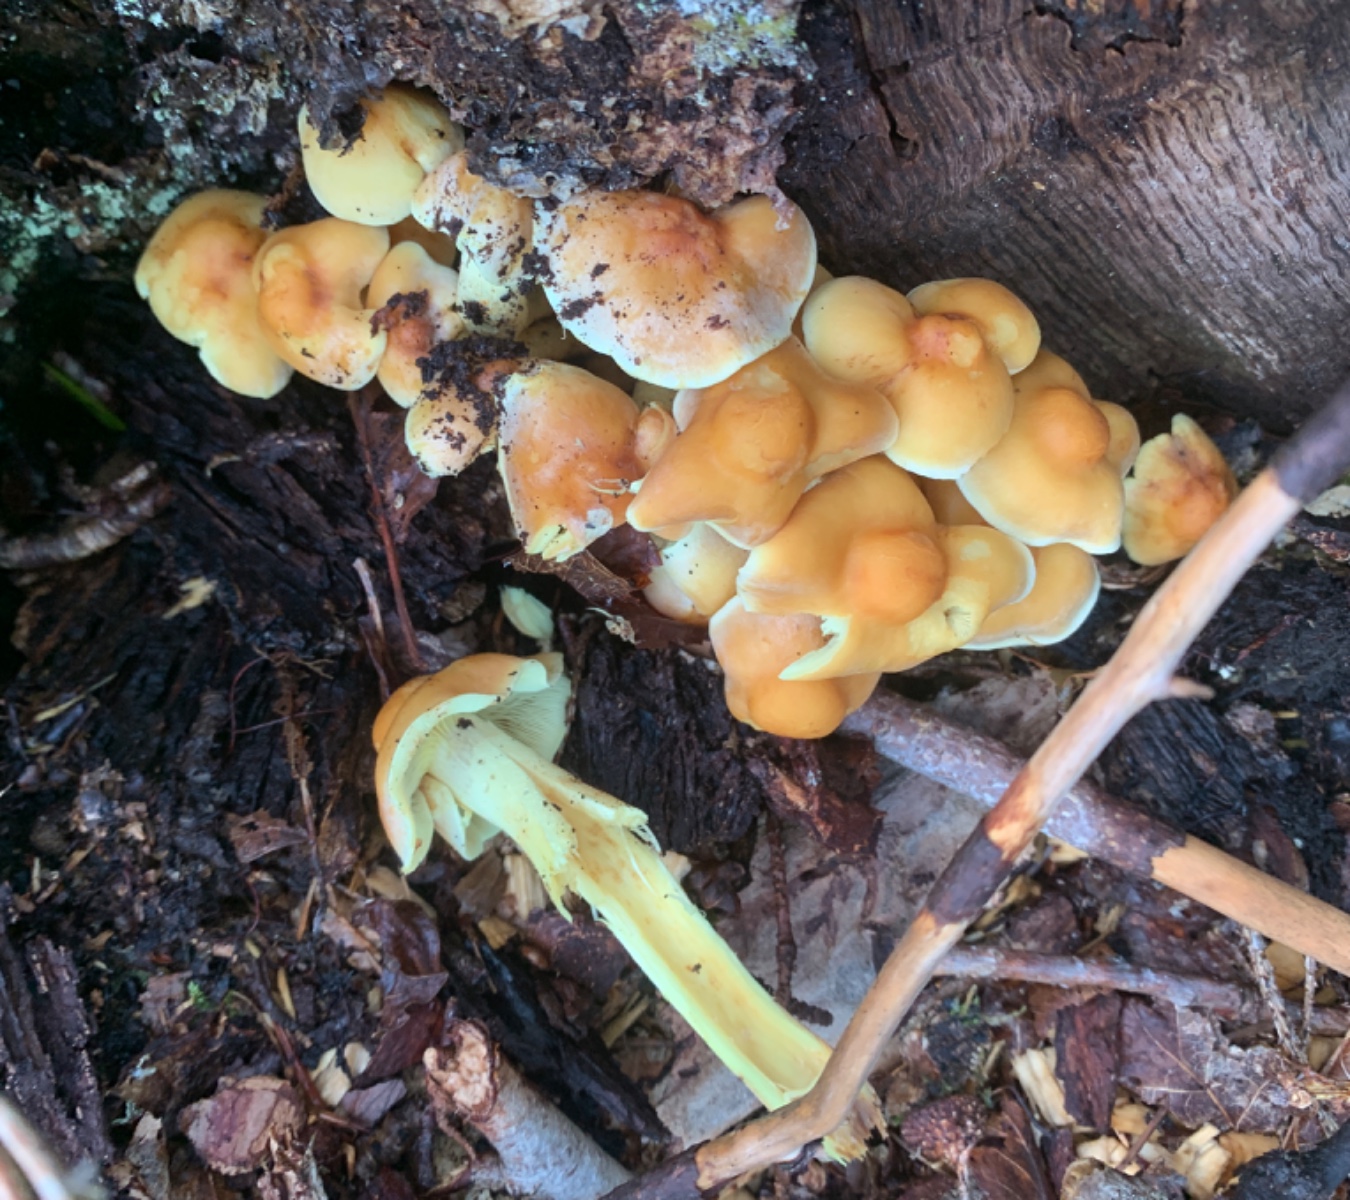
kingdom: Fungi
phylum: Basidiomycota
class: Agaricomycetes
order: Agaricales
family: Strophariaceae
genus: Hypholoma
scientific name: Hypholoma fasciculare
